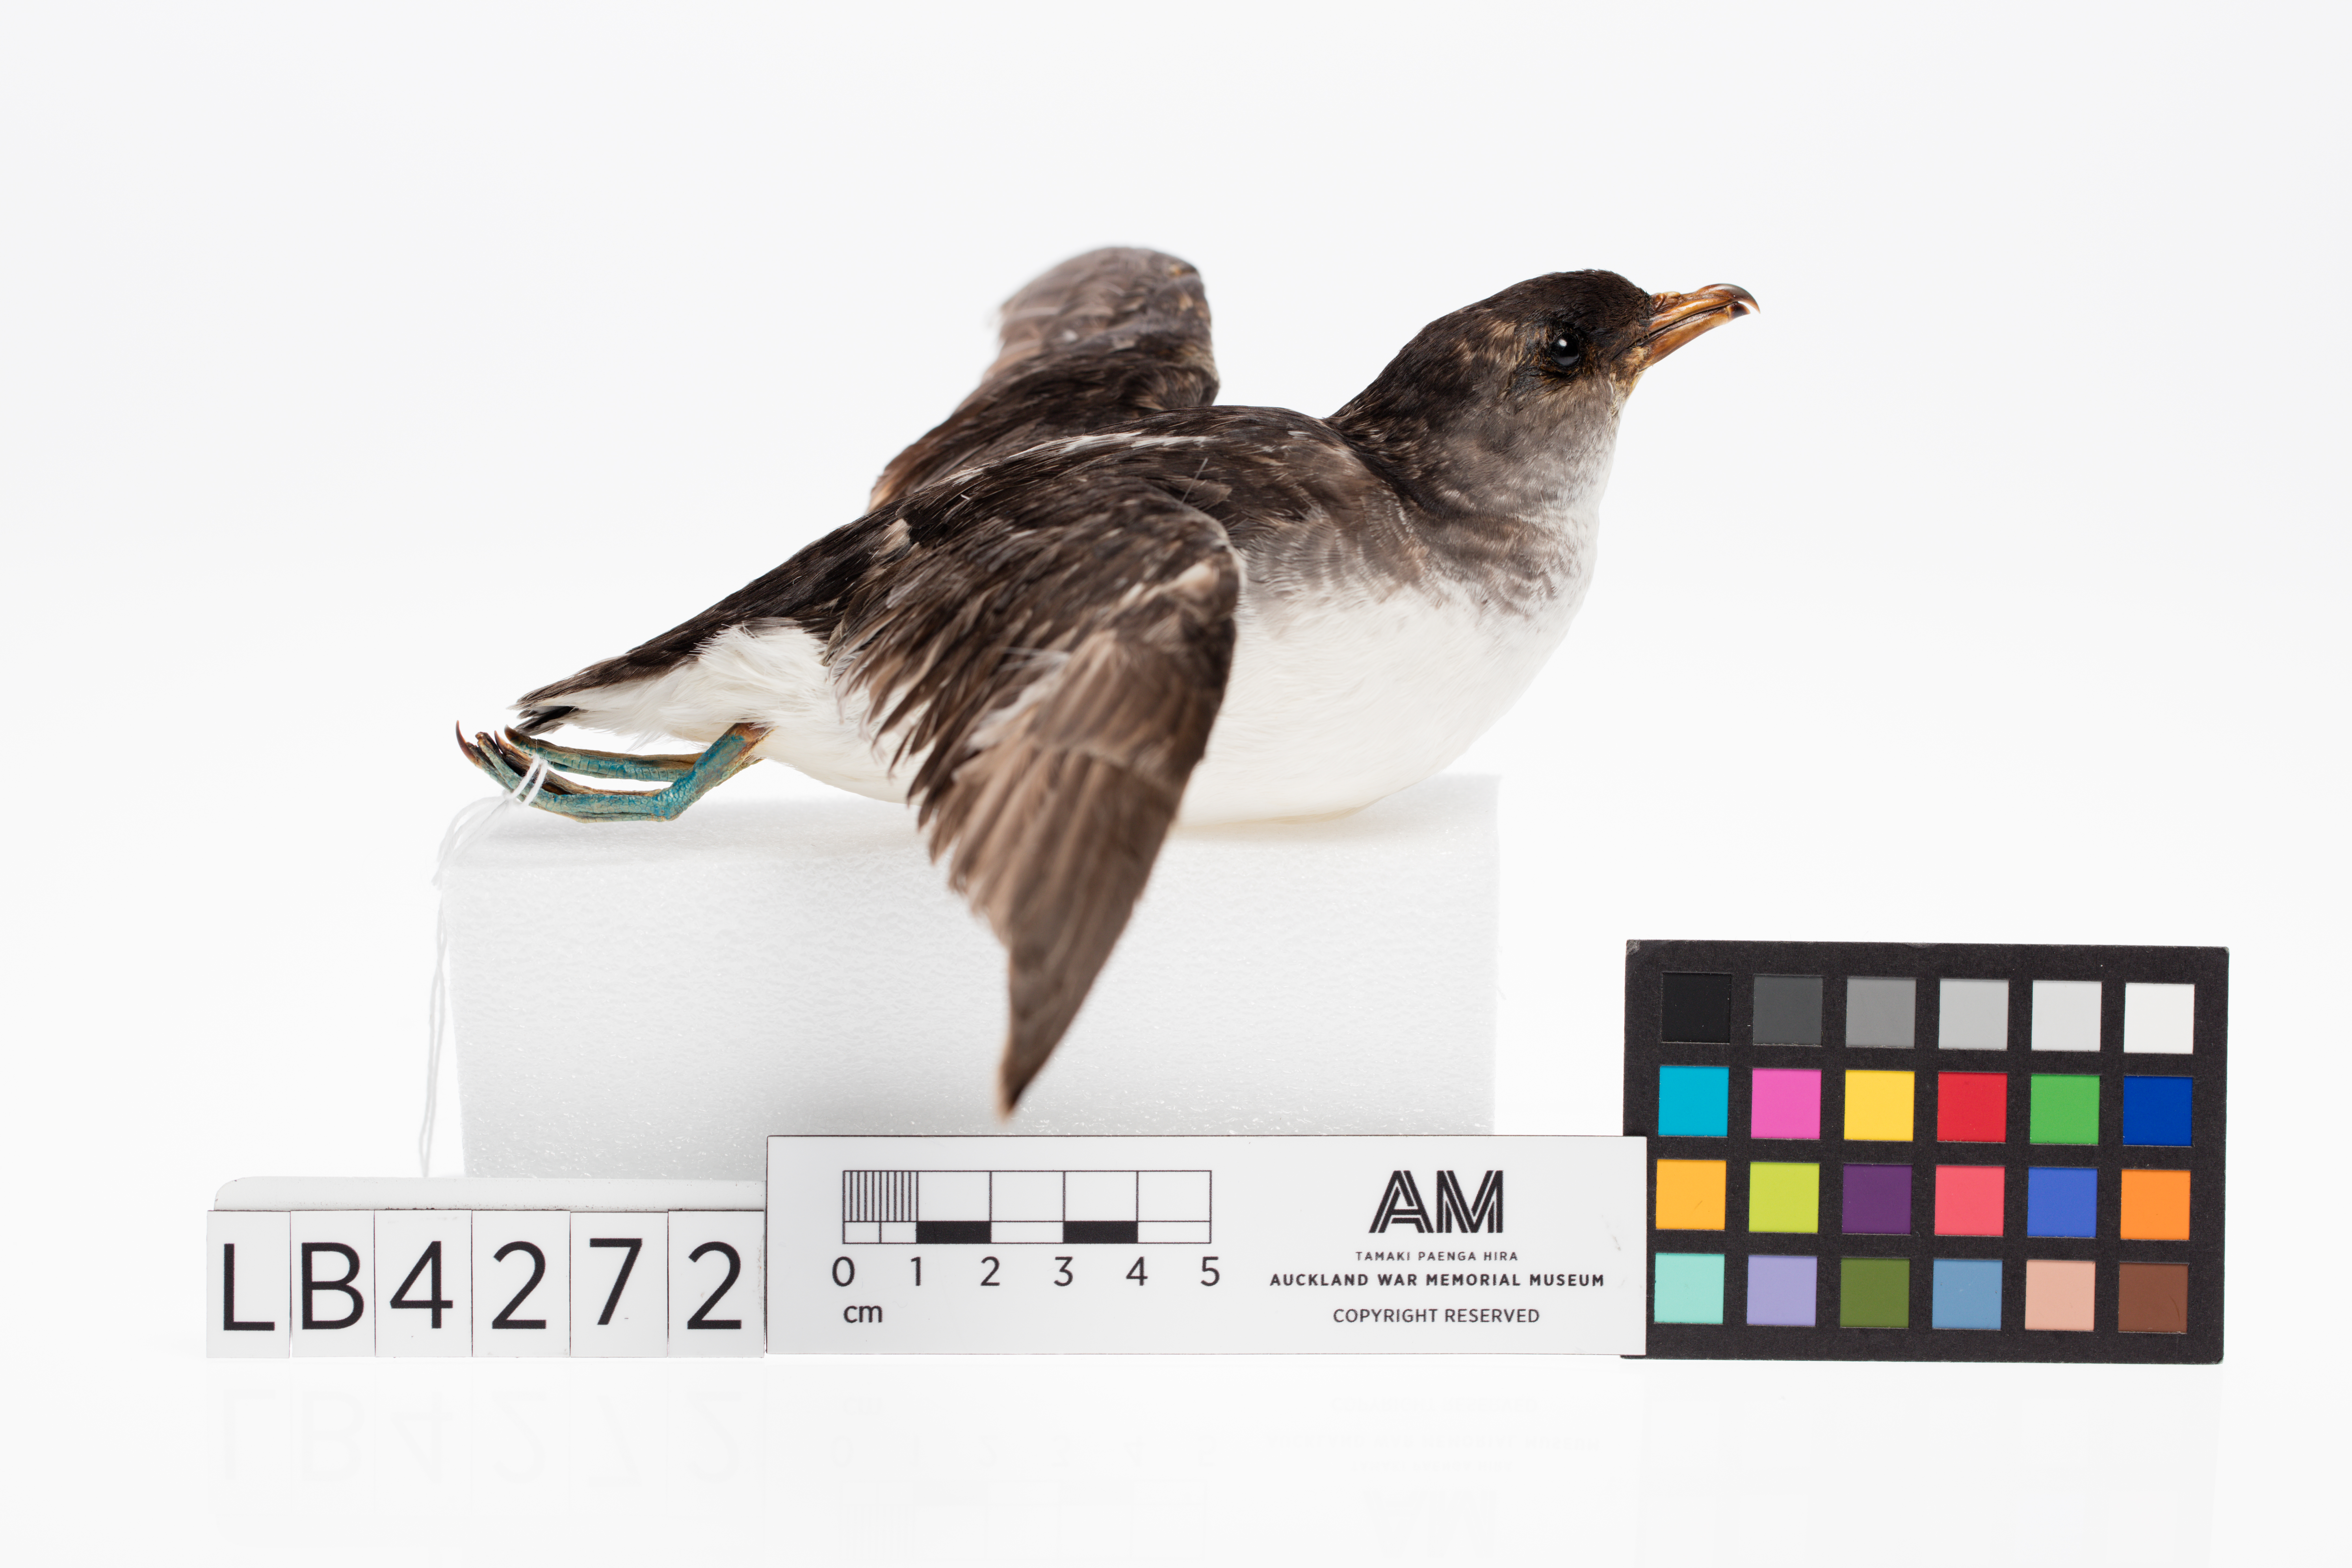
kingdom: Animalia
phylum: Chordata
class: Aves
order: Procellariiformes
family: Pelecanoididae
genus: Pelecanoides
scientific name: Pelecanoides urinatrix
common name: Common diving-petrel
